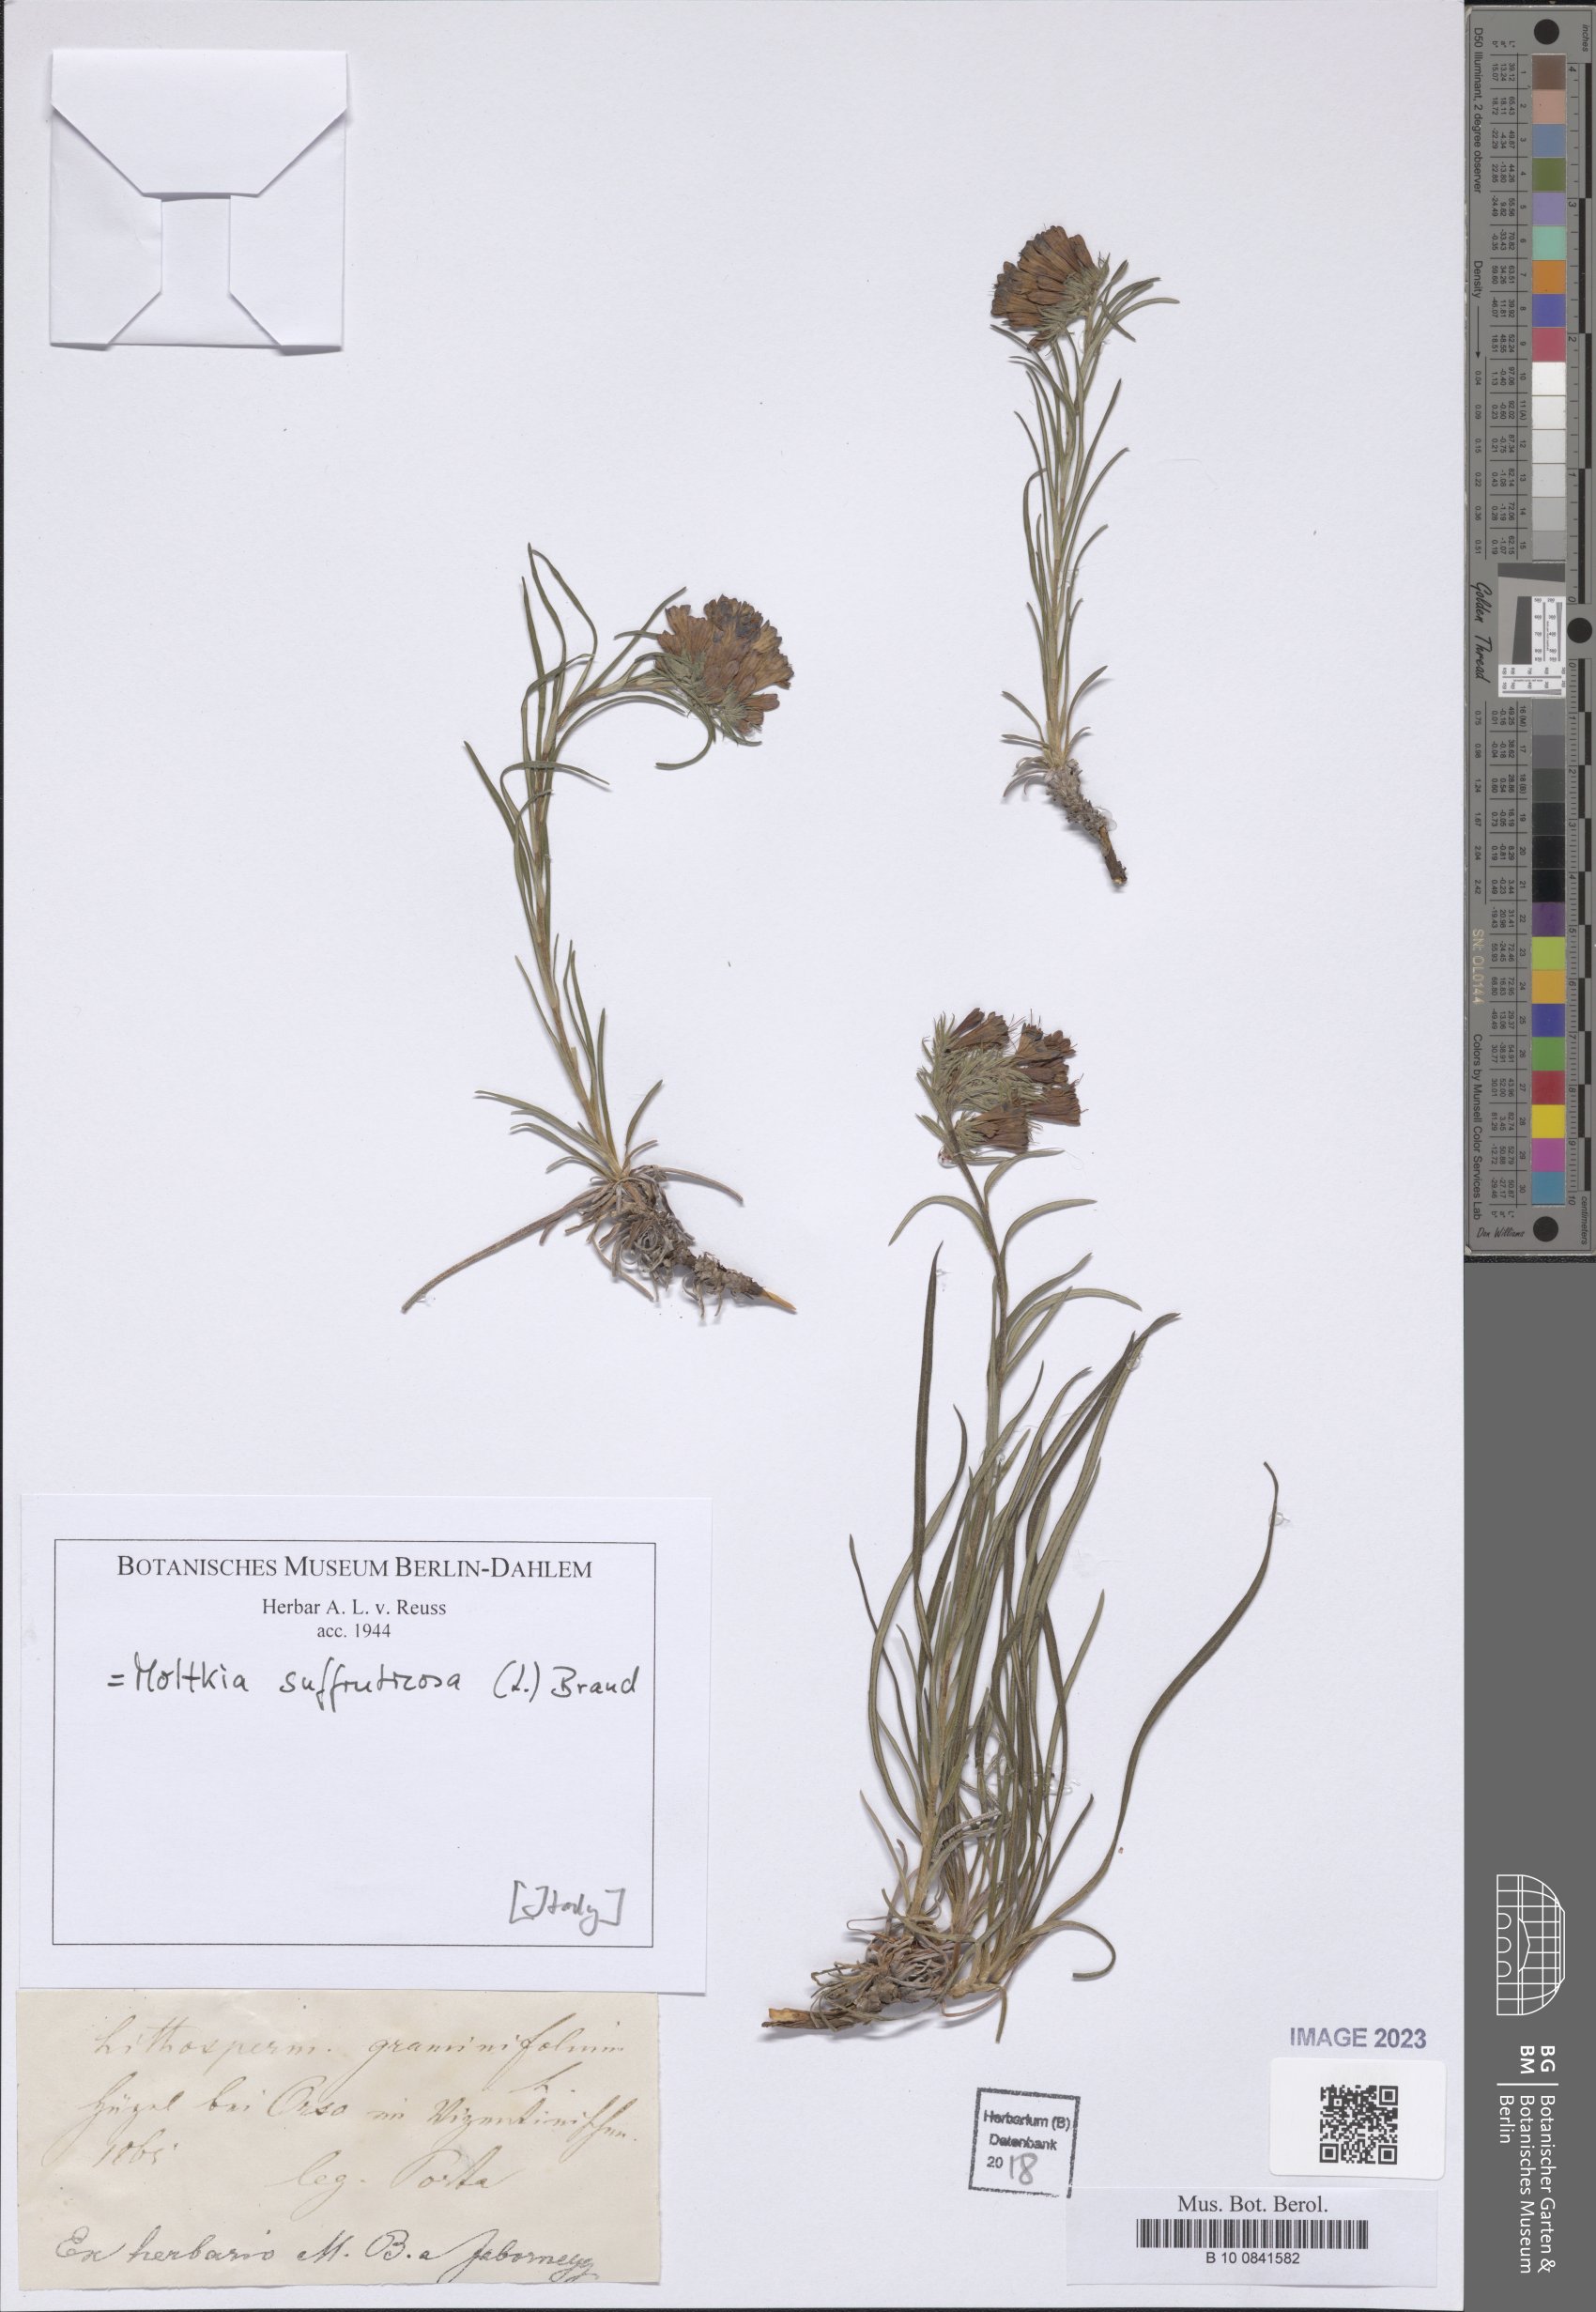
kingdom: Plantae
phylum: Tracheophyta
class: Magnoliopsida
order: Boraginales
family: Boraginaceae
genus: Moltkia
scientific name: Moltkia suffruticosa
